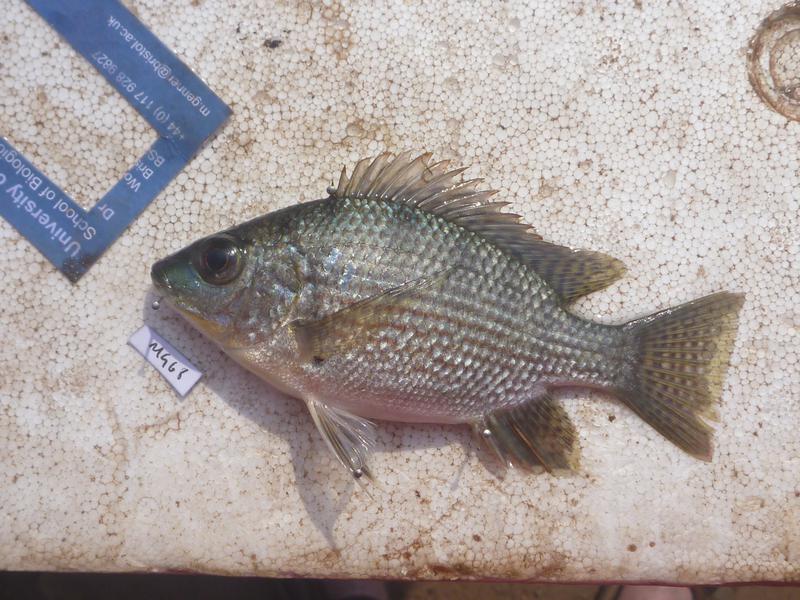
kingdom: Animalia
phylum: Chordata
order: Perciformes
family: Cichlidae
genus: Oreochromis
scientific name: Oreochromis tanganicae
